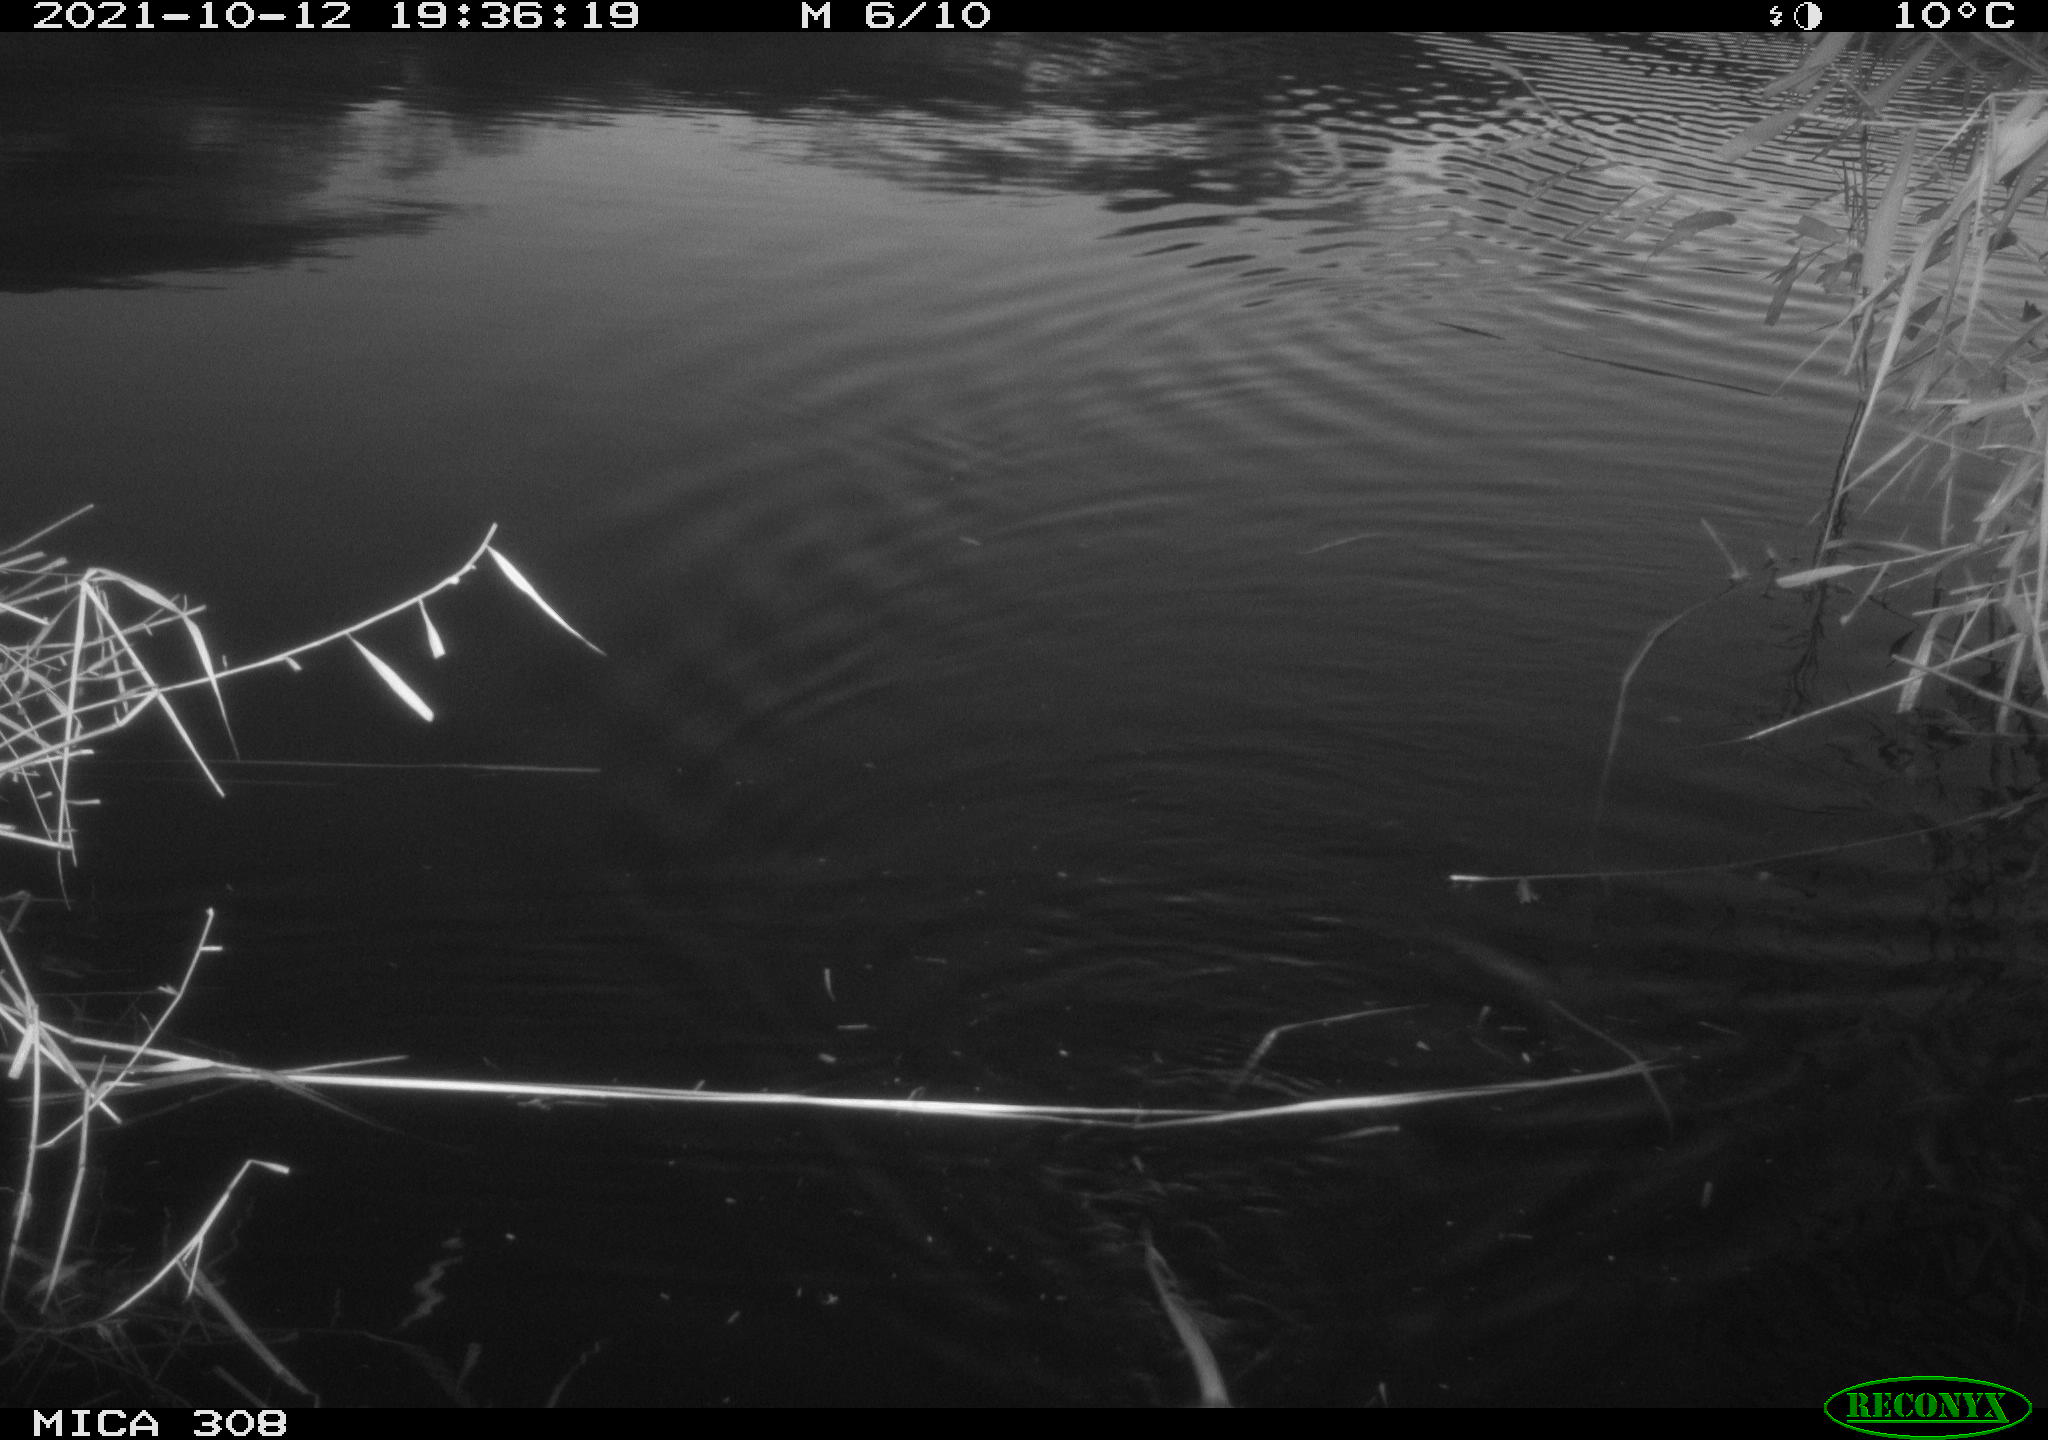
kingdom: Animalia
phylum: Chordata
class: Mammalia
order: Rodentia
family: Cricetidae
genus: Ondatra
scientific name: Ondatra zibethicus
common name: Muskrat
